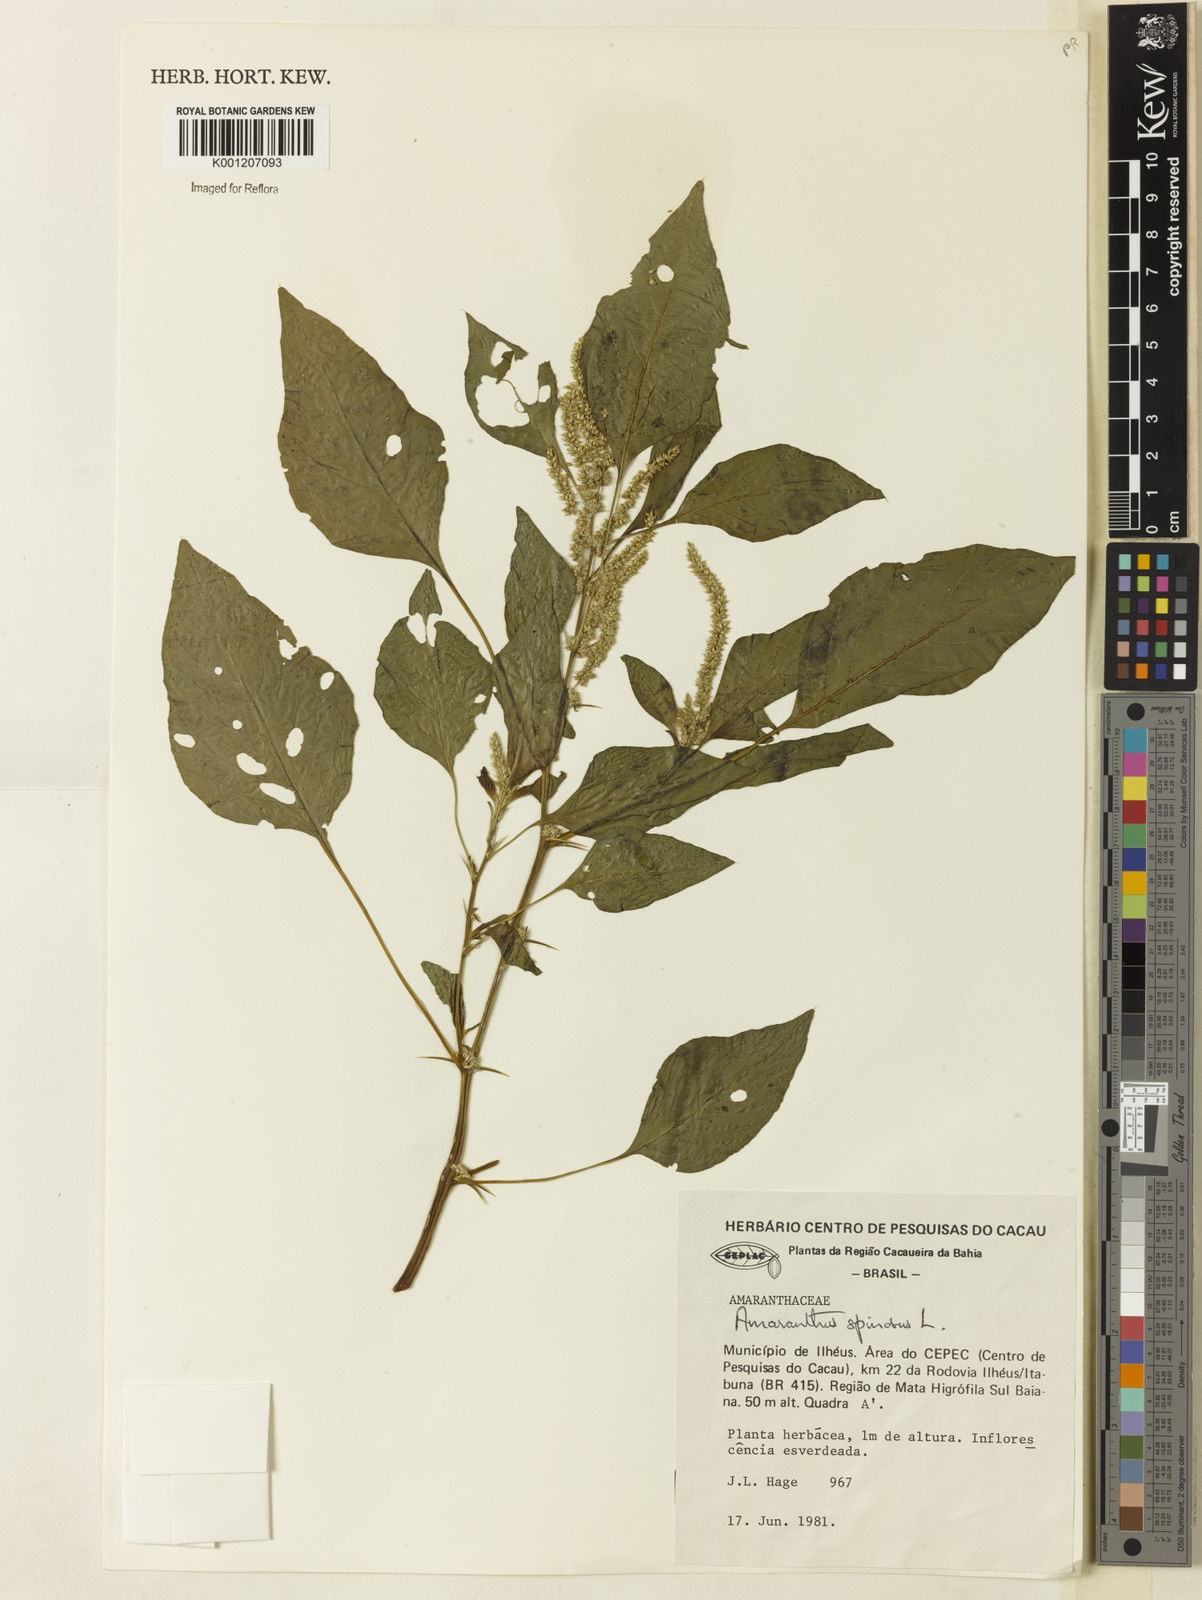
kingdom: Plantae
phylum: Tracheophyta
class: Magnoliopsida
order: Caryophyllales
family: Amaranthaceae
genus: Amaranthus
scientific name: Amaranthus spinosus
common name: Spiny amaranth
